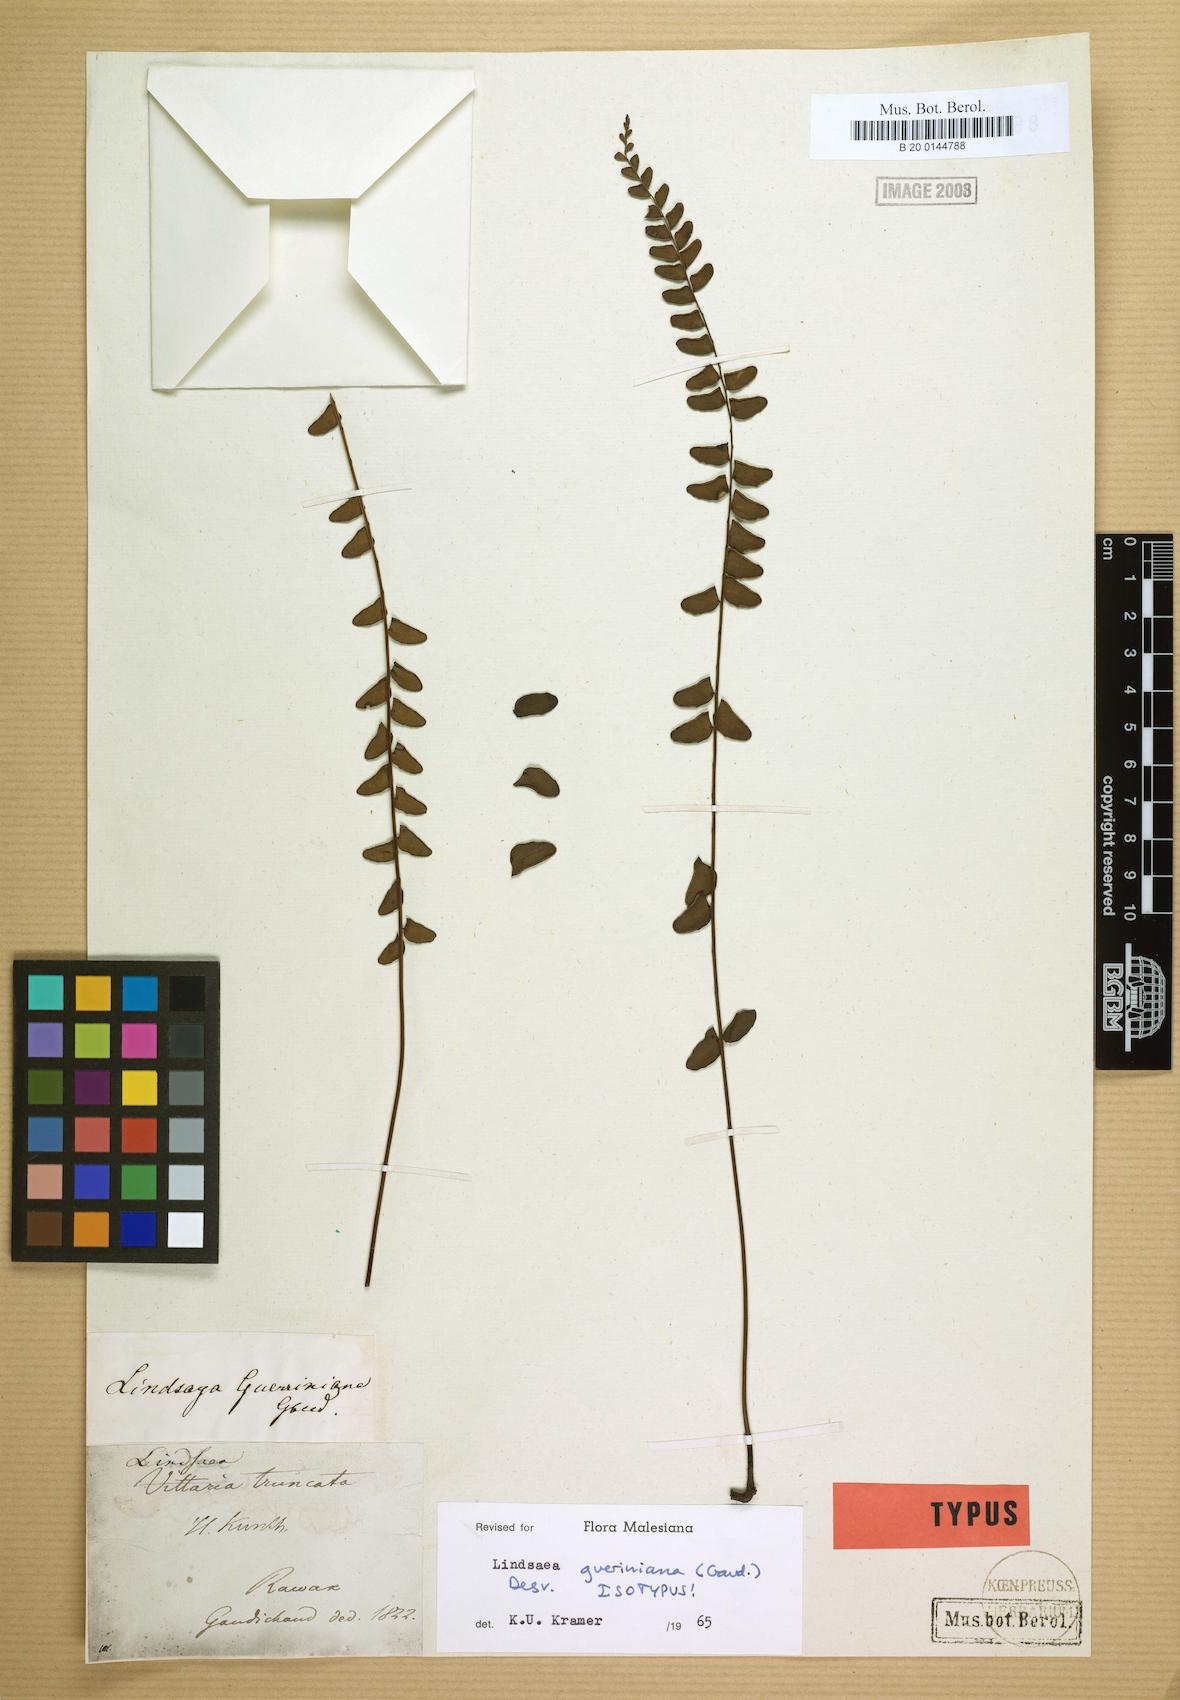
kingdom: Plantae
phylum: Tracheophyta
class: Polypodiopsida
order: Polypodiales
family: Lindsaeaceae
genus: Lindsaea
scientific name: Lindsaea gueriniana
